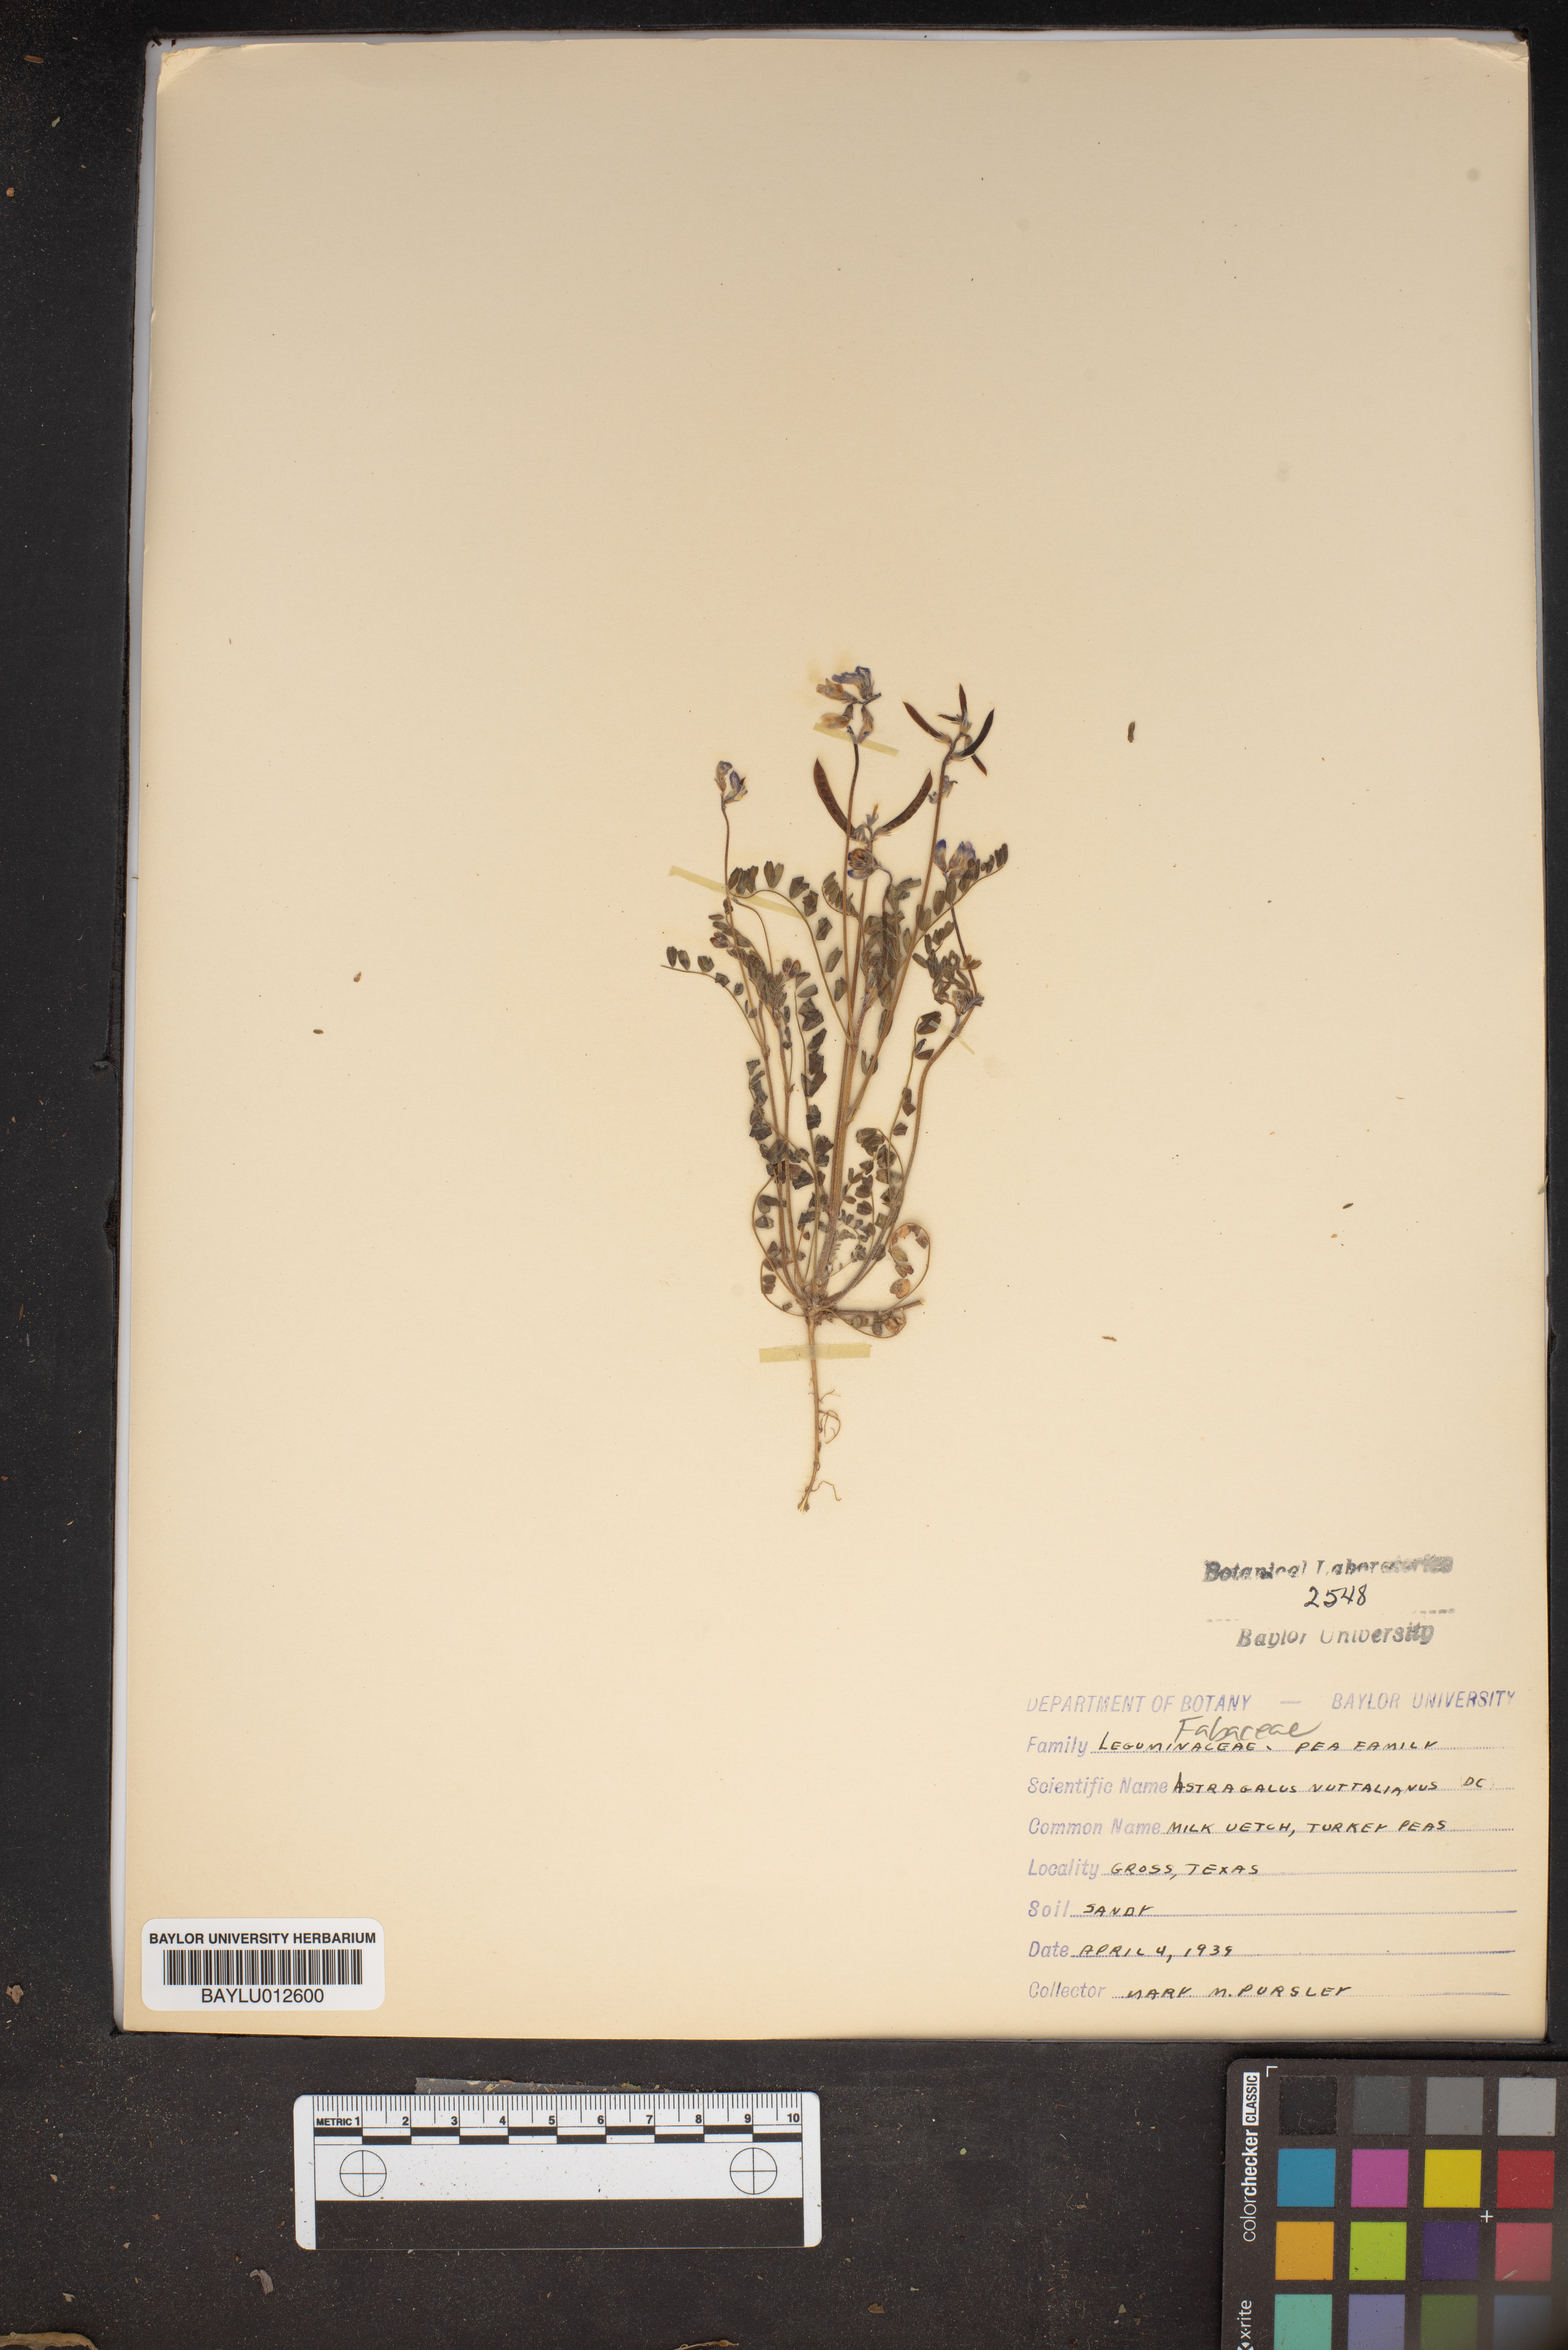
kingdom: Plantae
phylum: Tracheophyta
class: Magnoliopsida
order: Fabales
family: Fabaceae
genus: Astragalus
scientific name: Astragalus nuttallianus
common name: Smallflowered milkvetch
